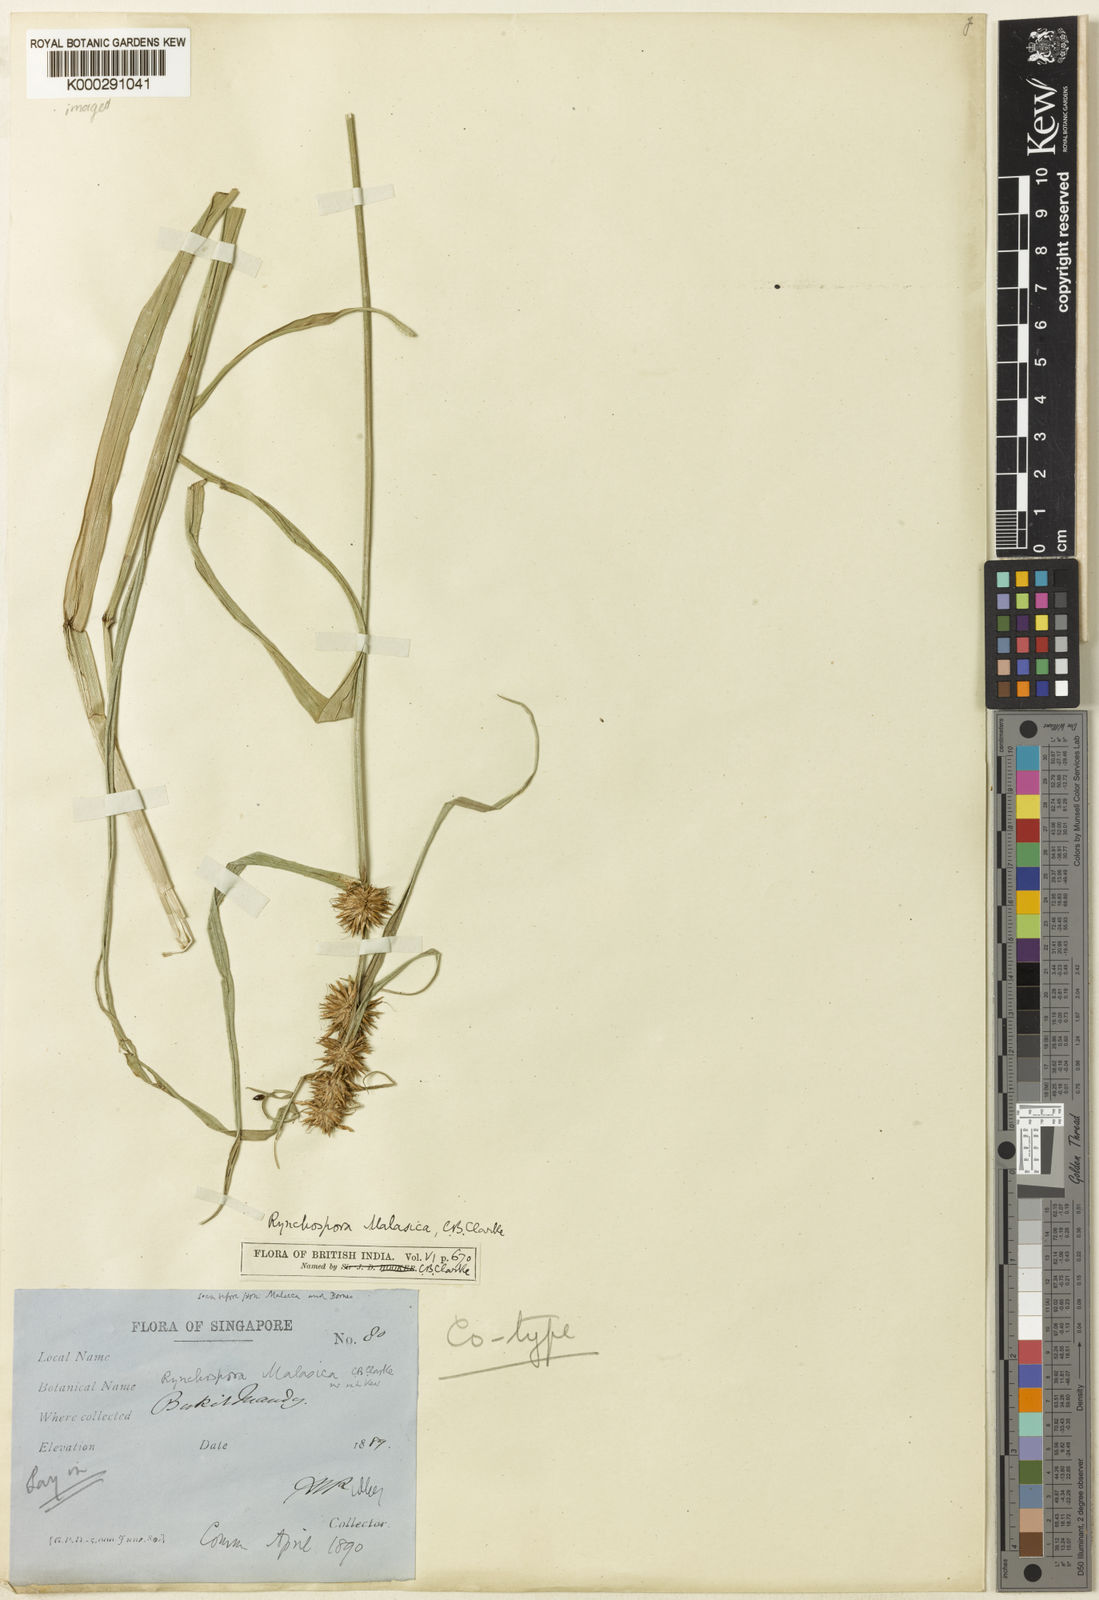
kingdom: Plantae
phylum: Tracheophyta
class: Liliopsida
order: Poales
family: Cyperaceae
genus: Rhynchospora
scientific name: Rhynchospora malasica
